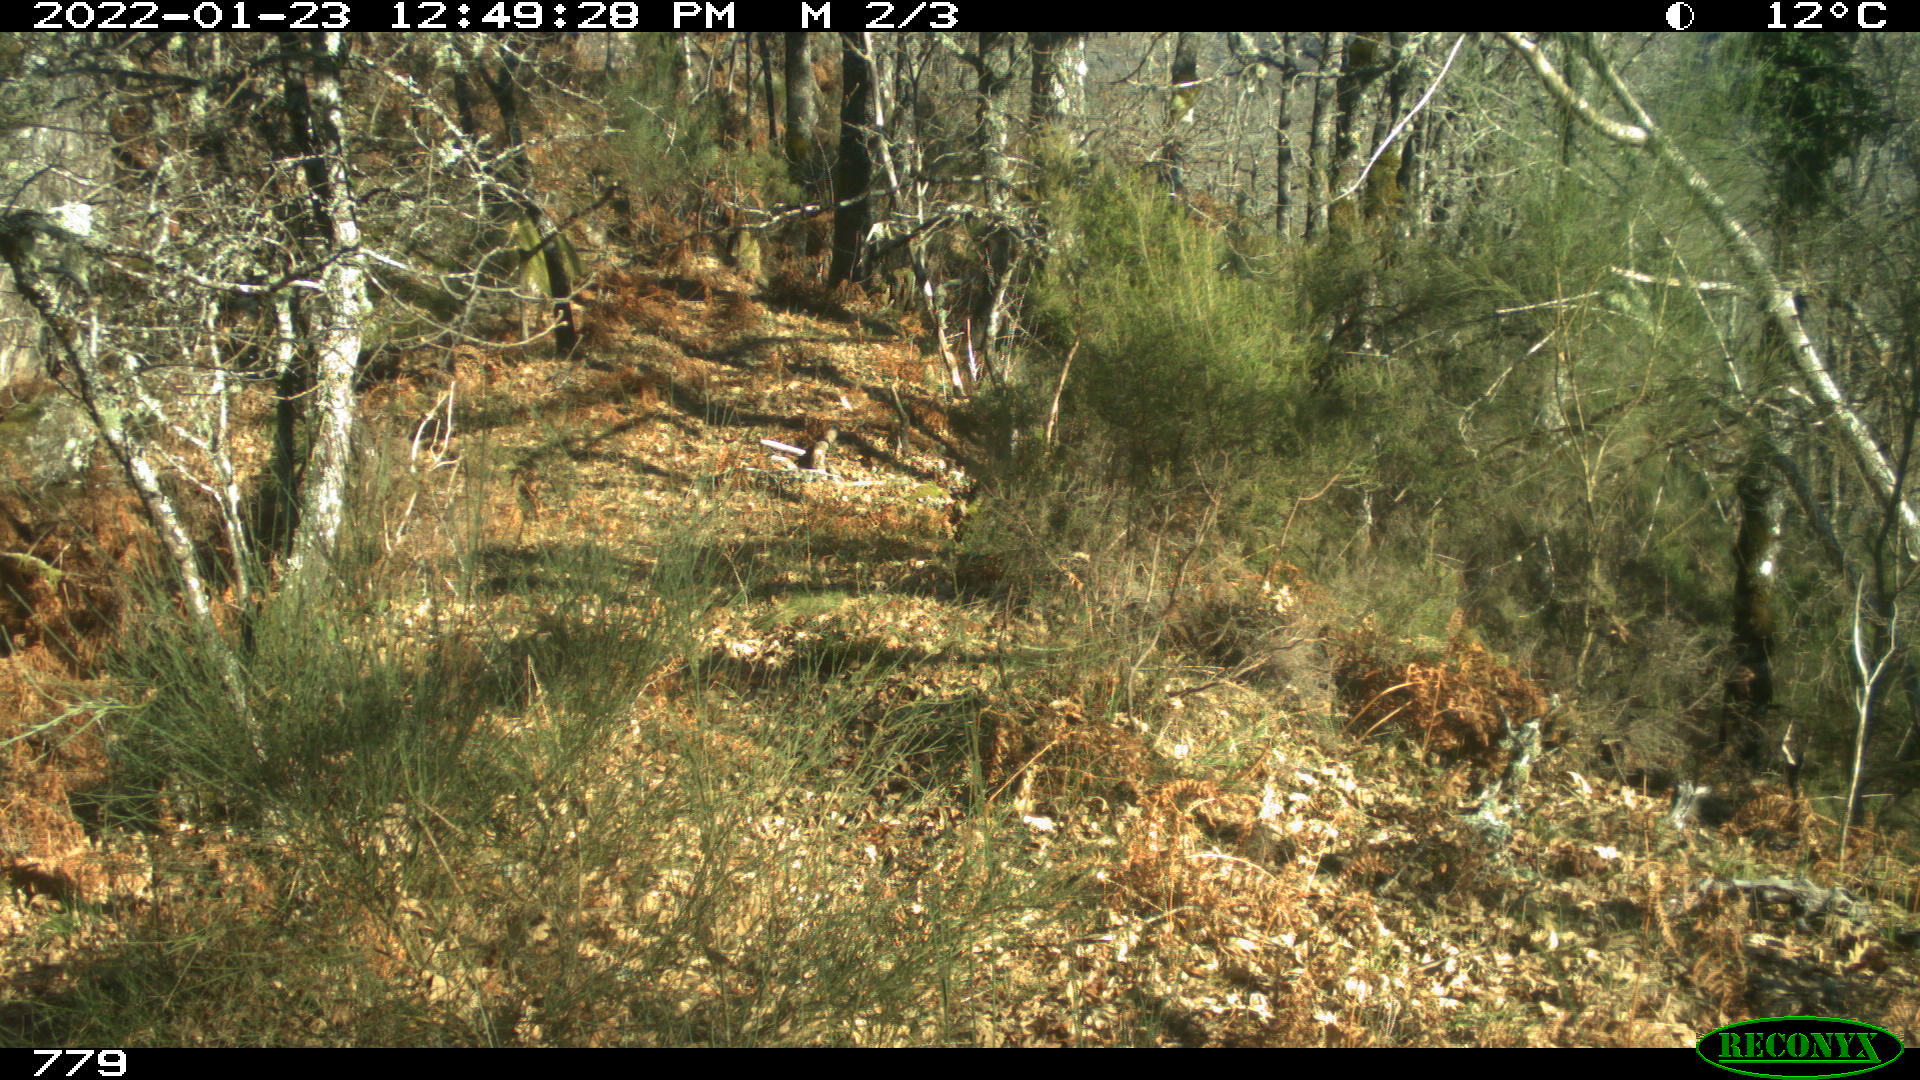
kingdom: Animalia
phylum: Chordata
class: Mammalia
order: Artiodactyla
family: Cervidae
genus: Capreolus
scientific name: Capreolus capreolus
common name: Western roe deer
